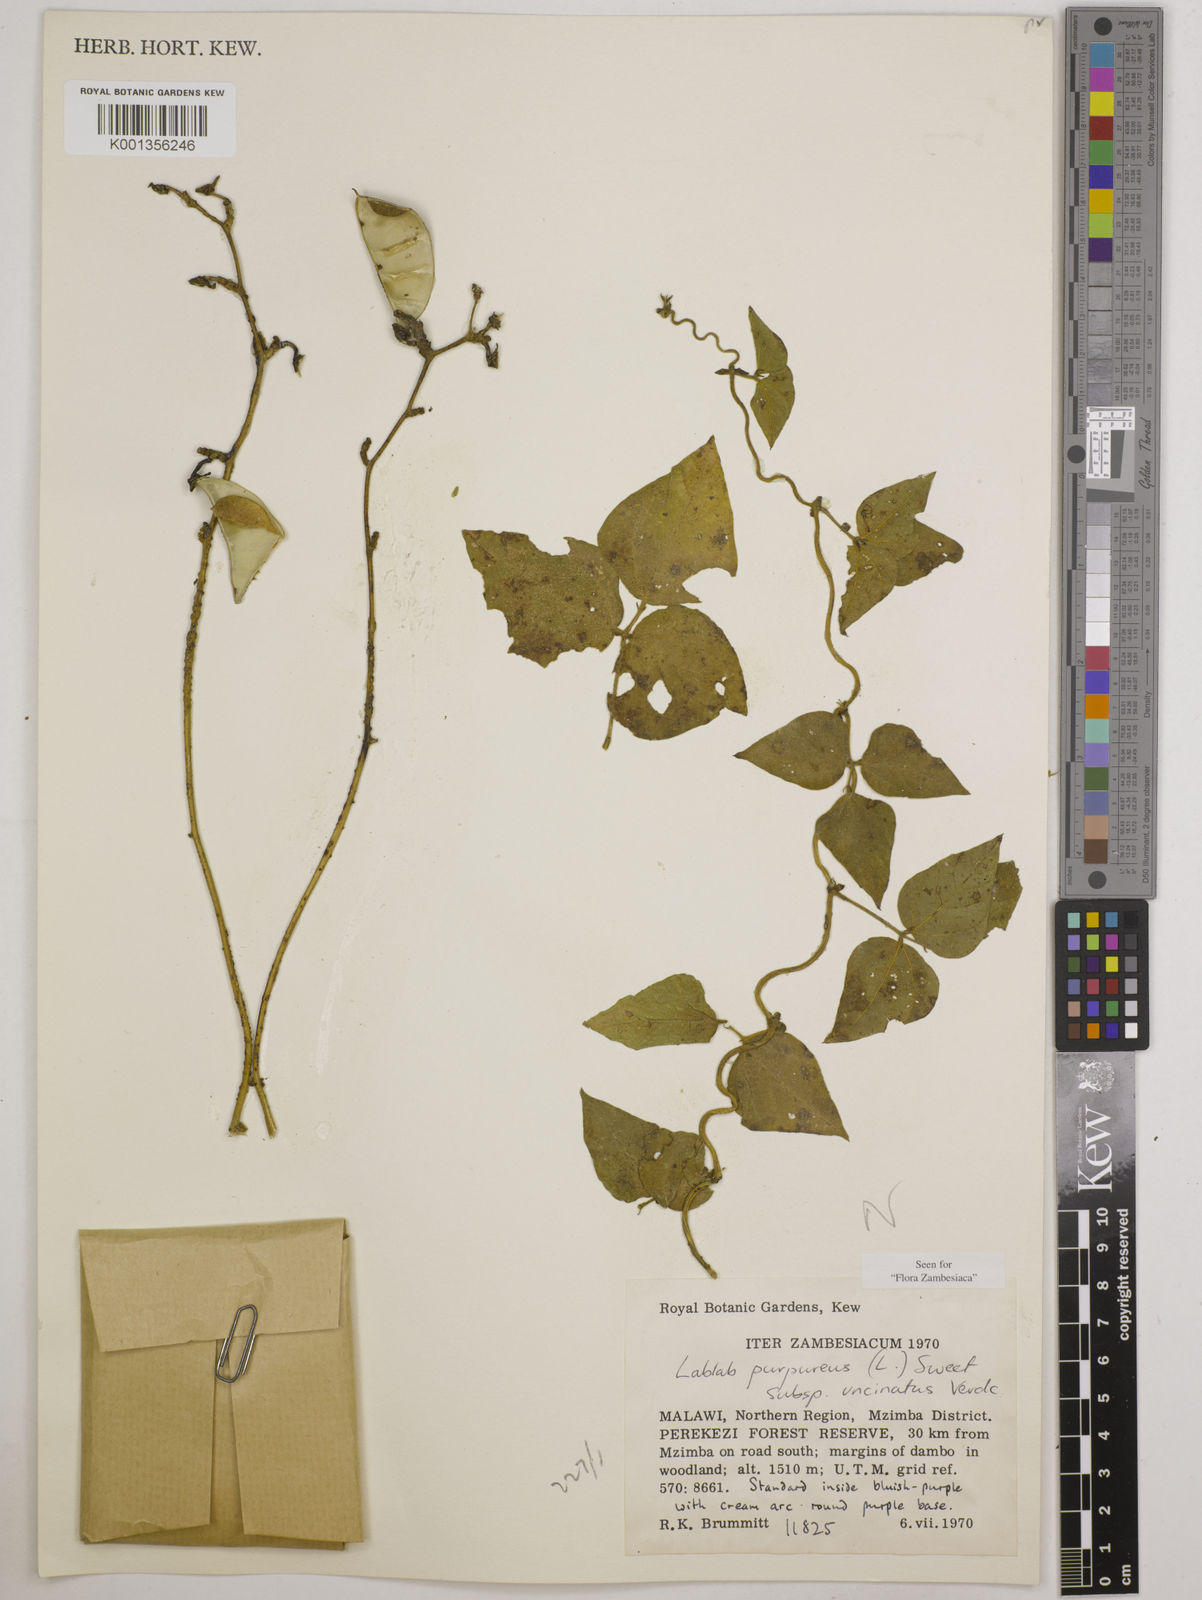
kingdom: Plantae
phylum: Tracheophyta
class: Magnoliopsida
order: Fabales
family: Fabaceae
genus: Lablab
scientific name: Lablab purpureus
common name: Lablab-bean
